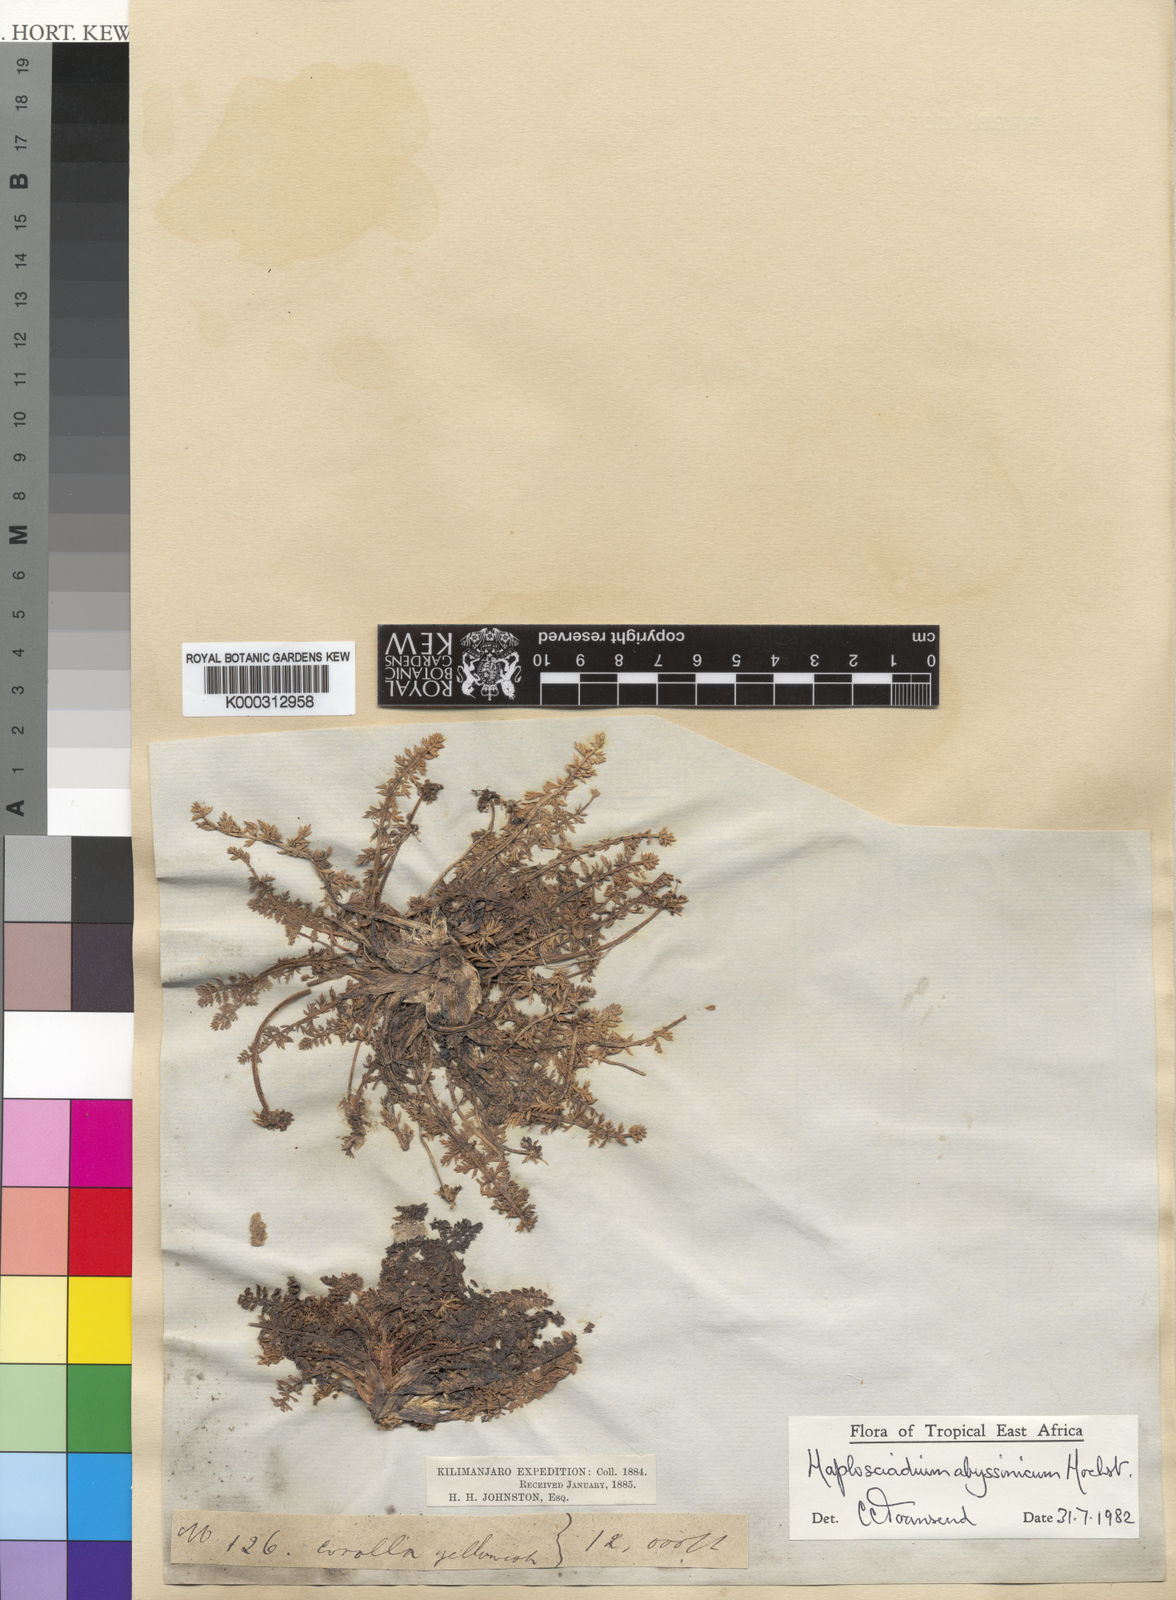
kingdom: Plantae
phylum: Tracheophyta
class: Magnoliopsida
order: Apiales
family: Apiaceae
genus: Haplosciadium
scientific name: Haplosciadium abyssinicum
